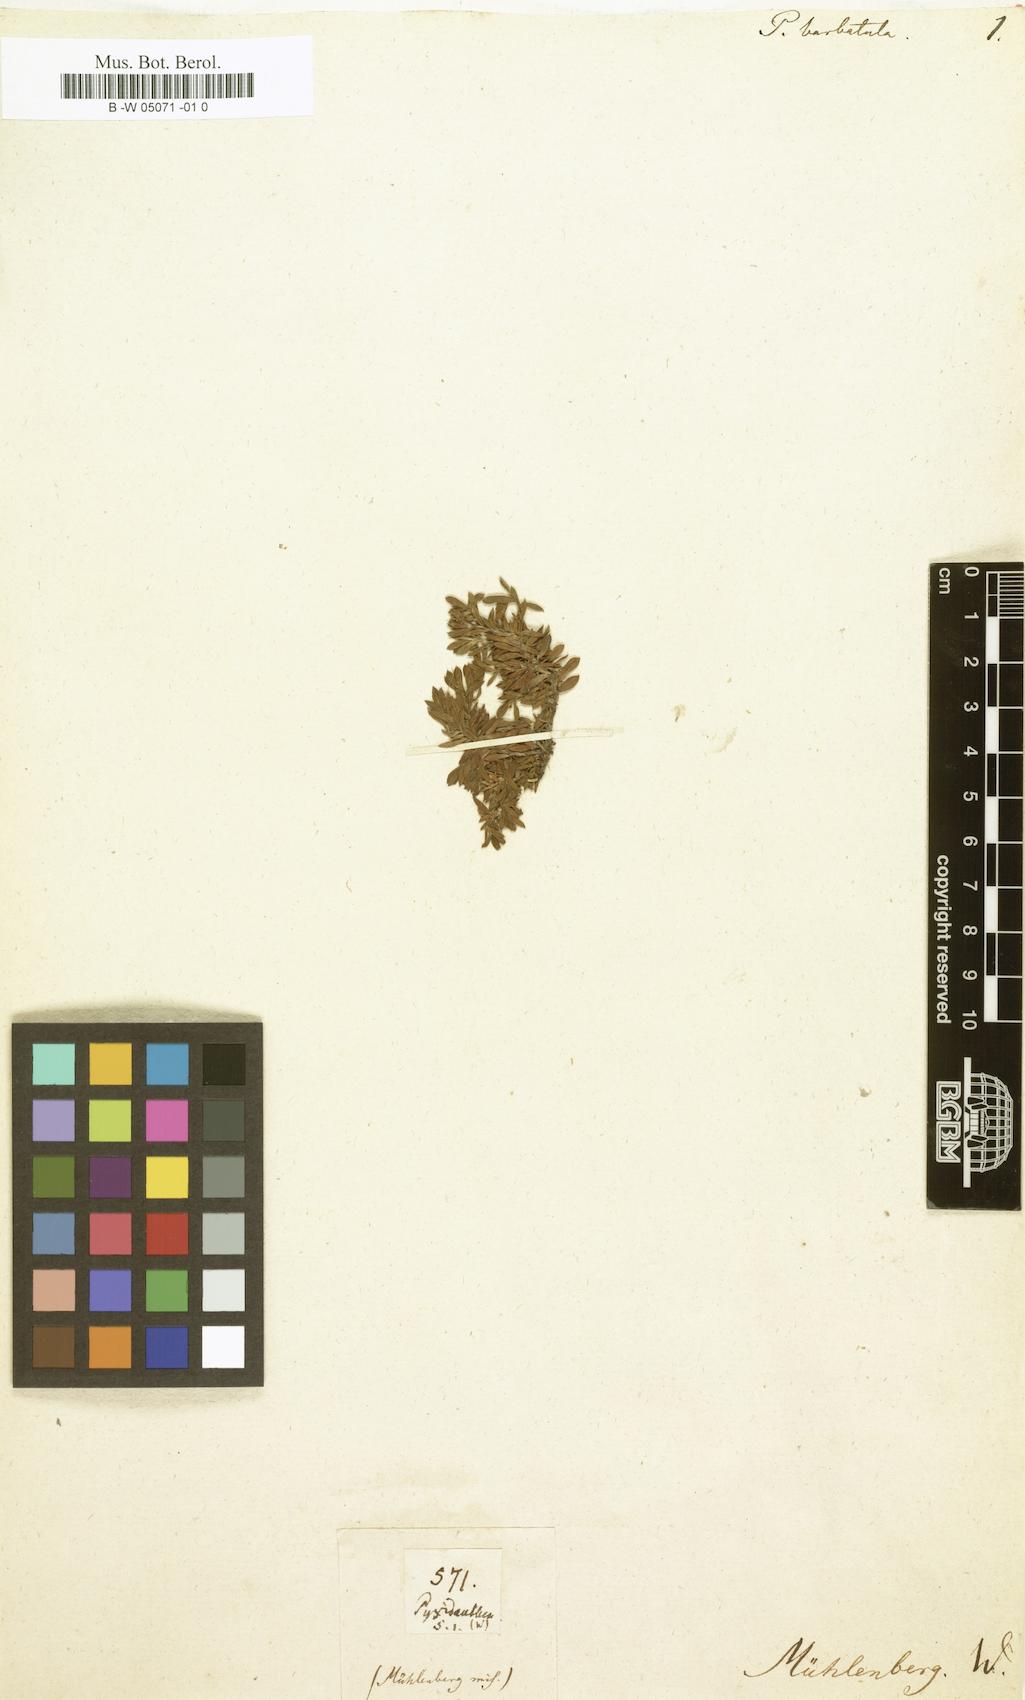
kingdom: Plantae
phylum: Tracheophyta
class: Magnoliopsida
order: Ericales
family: Diapensiaceae
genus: Pyxidanthera
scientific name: Pyxidanthera barbulata
